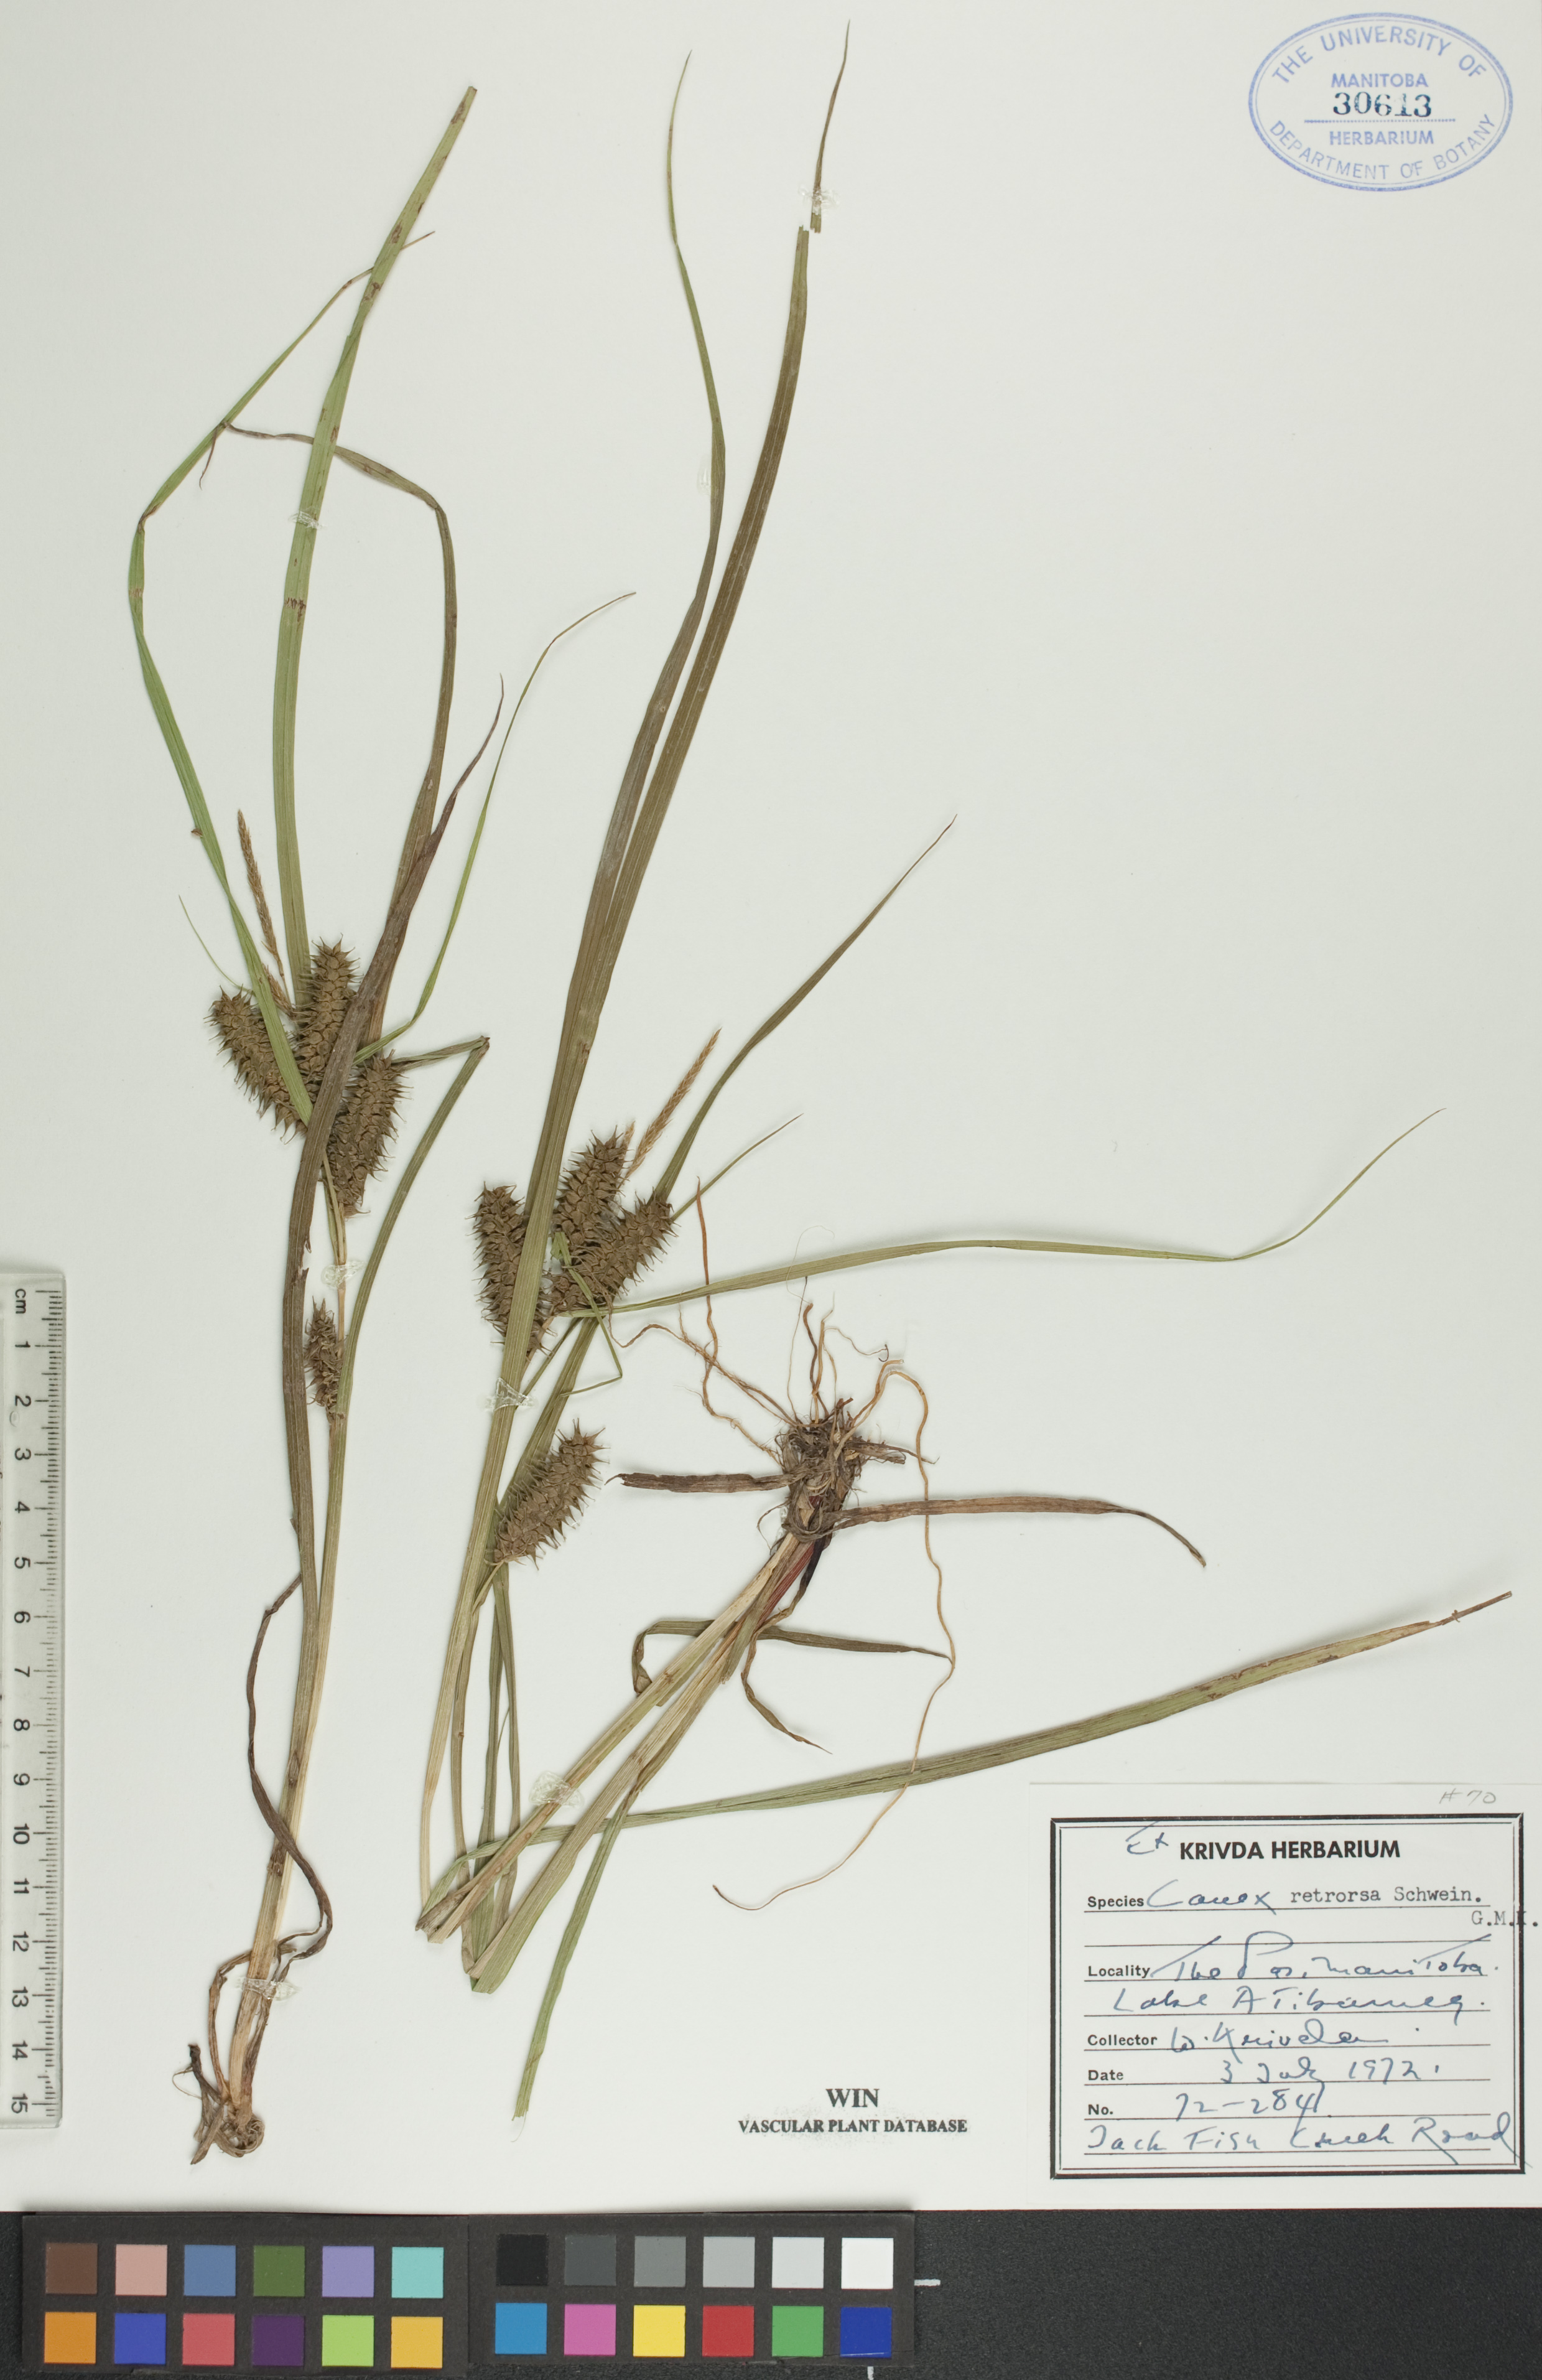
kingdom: Plantae
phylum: Tracheophyta
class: Liliopsida
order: Poales
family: Cyperaceae
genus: Carex
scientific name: Carex retrorsa
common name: Knot-sheath sedge
